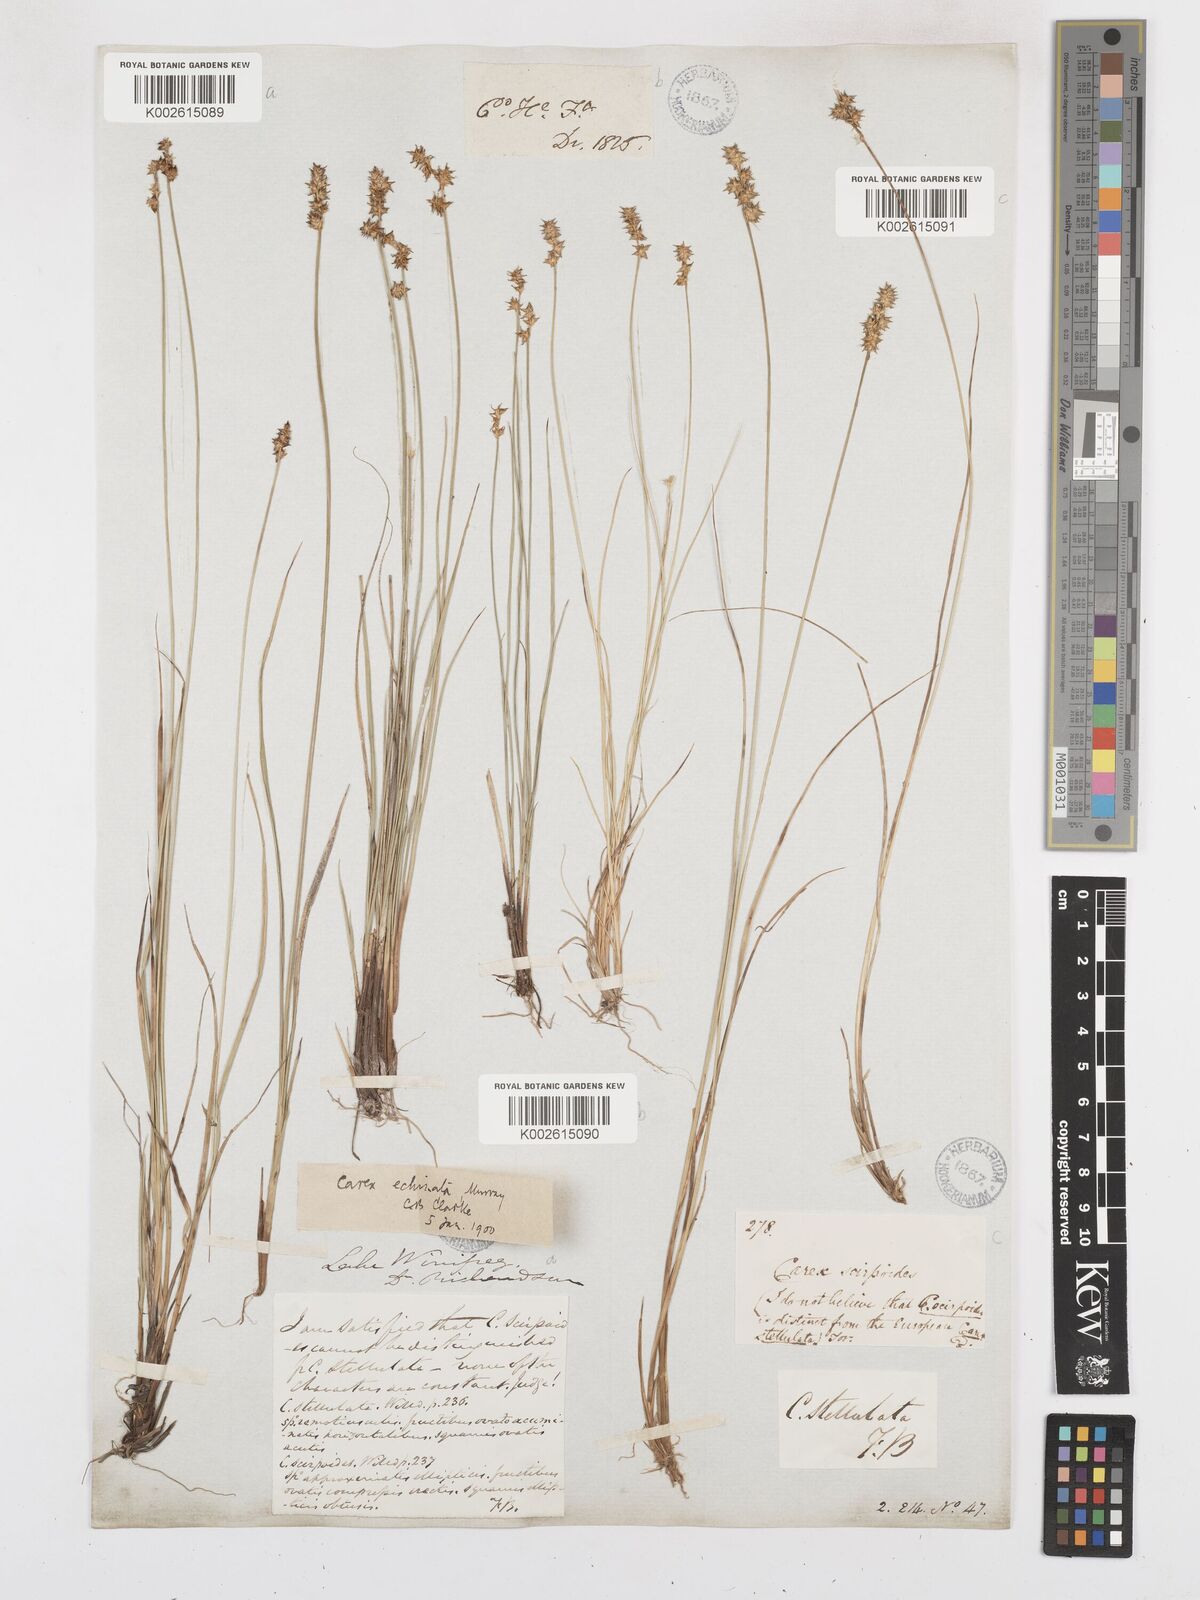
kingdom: Plantae
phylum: Tracheophyta
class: Liliopsida
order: Poales
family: Cyperaceae
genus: Carex
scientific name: Carex echinata
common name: Star sedge
